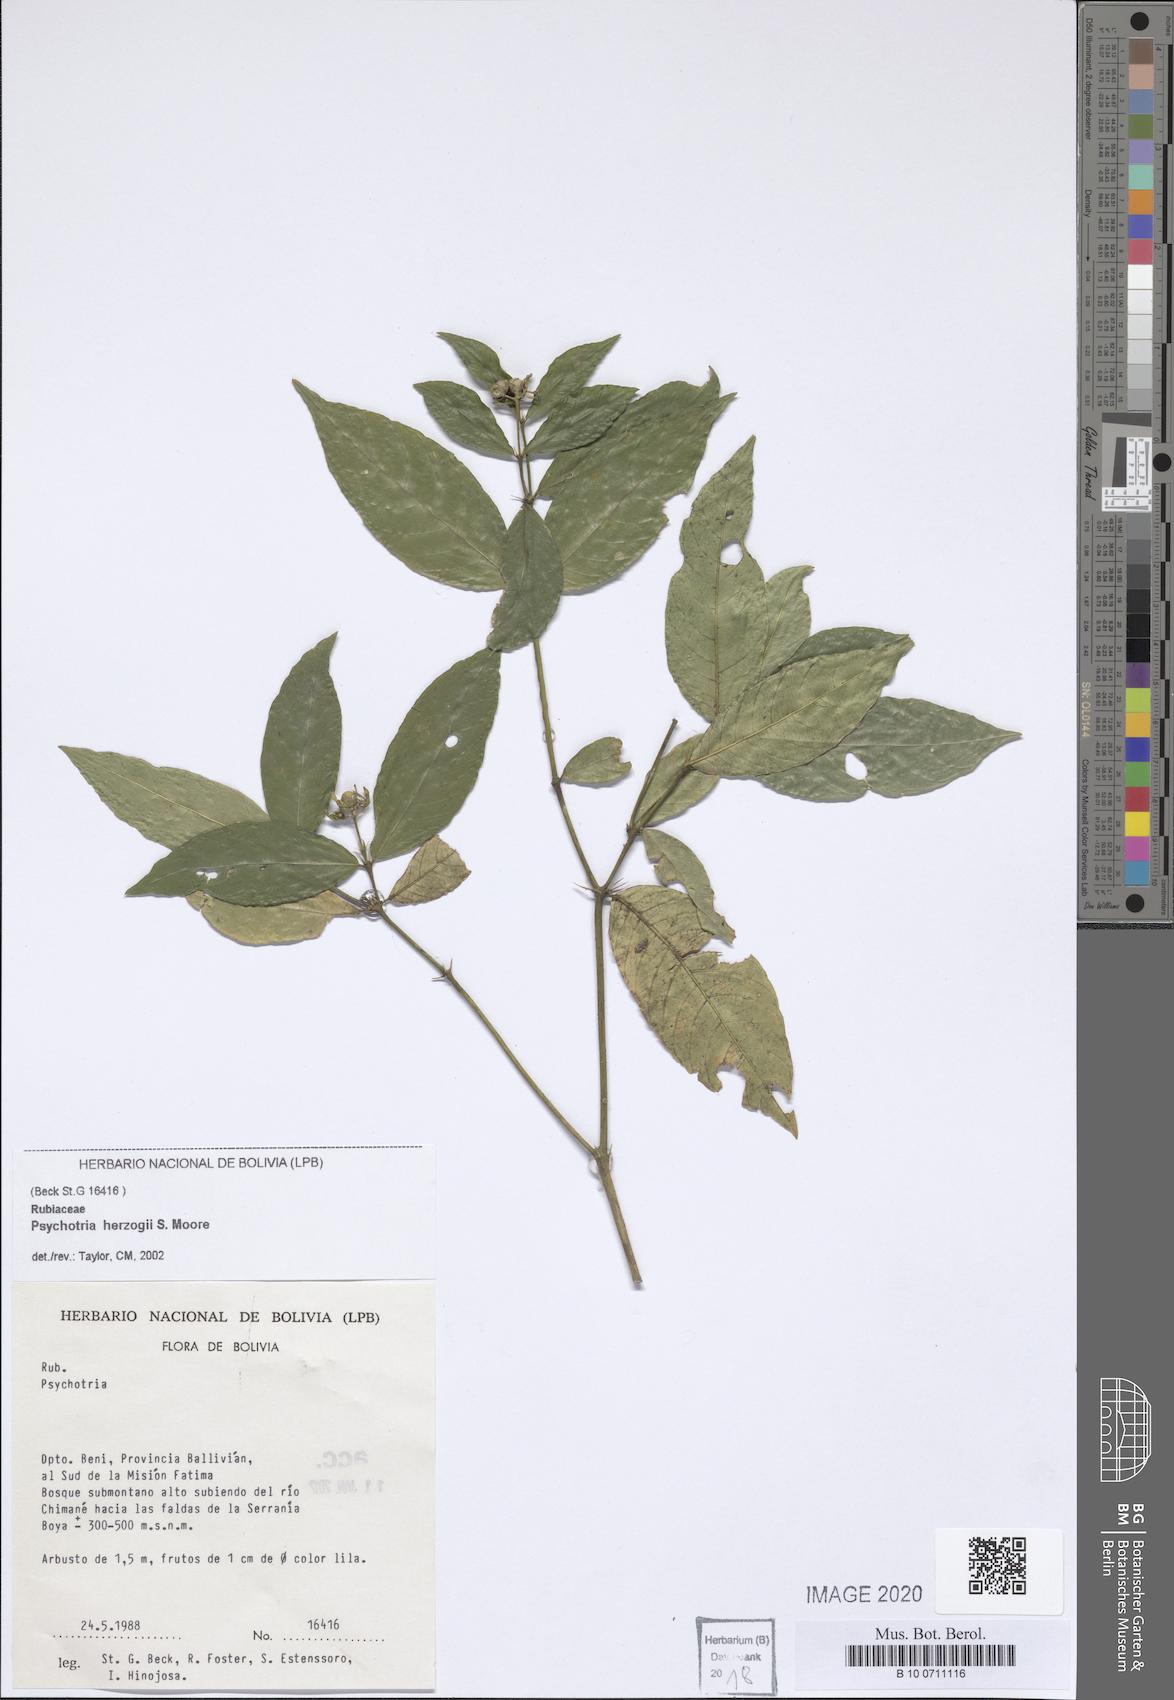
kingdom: Plantae
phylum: Tracheophyta
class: Magnoliopsida
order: Gentianales
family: Rubiaceae
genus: Psychotria
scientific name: Psychotria herzogii
